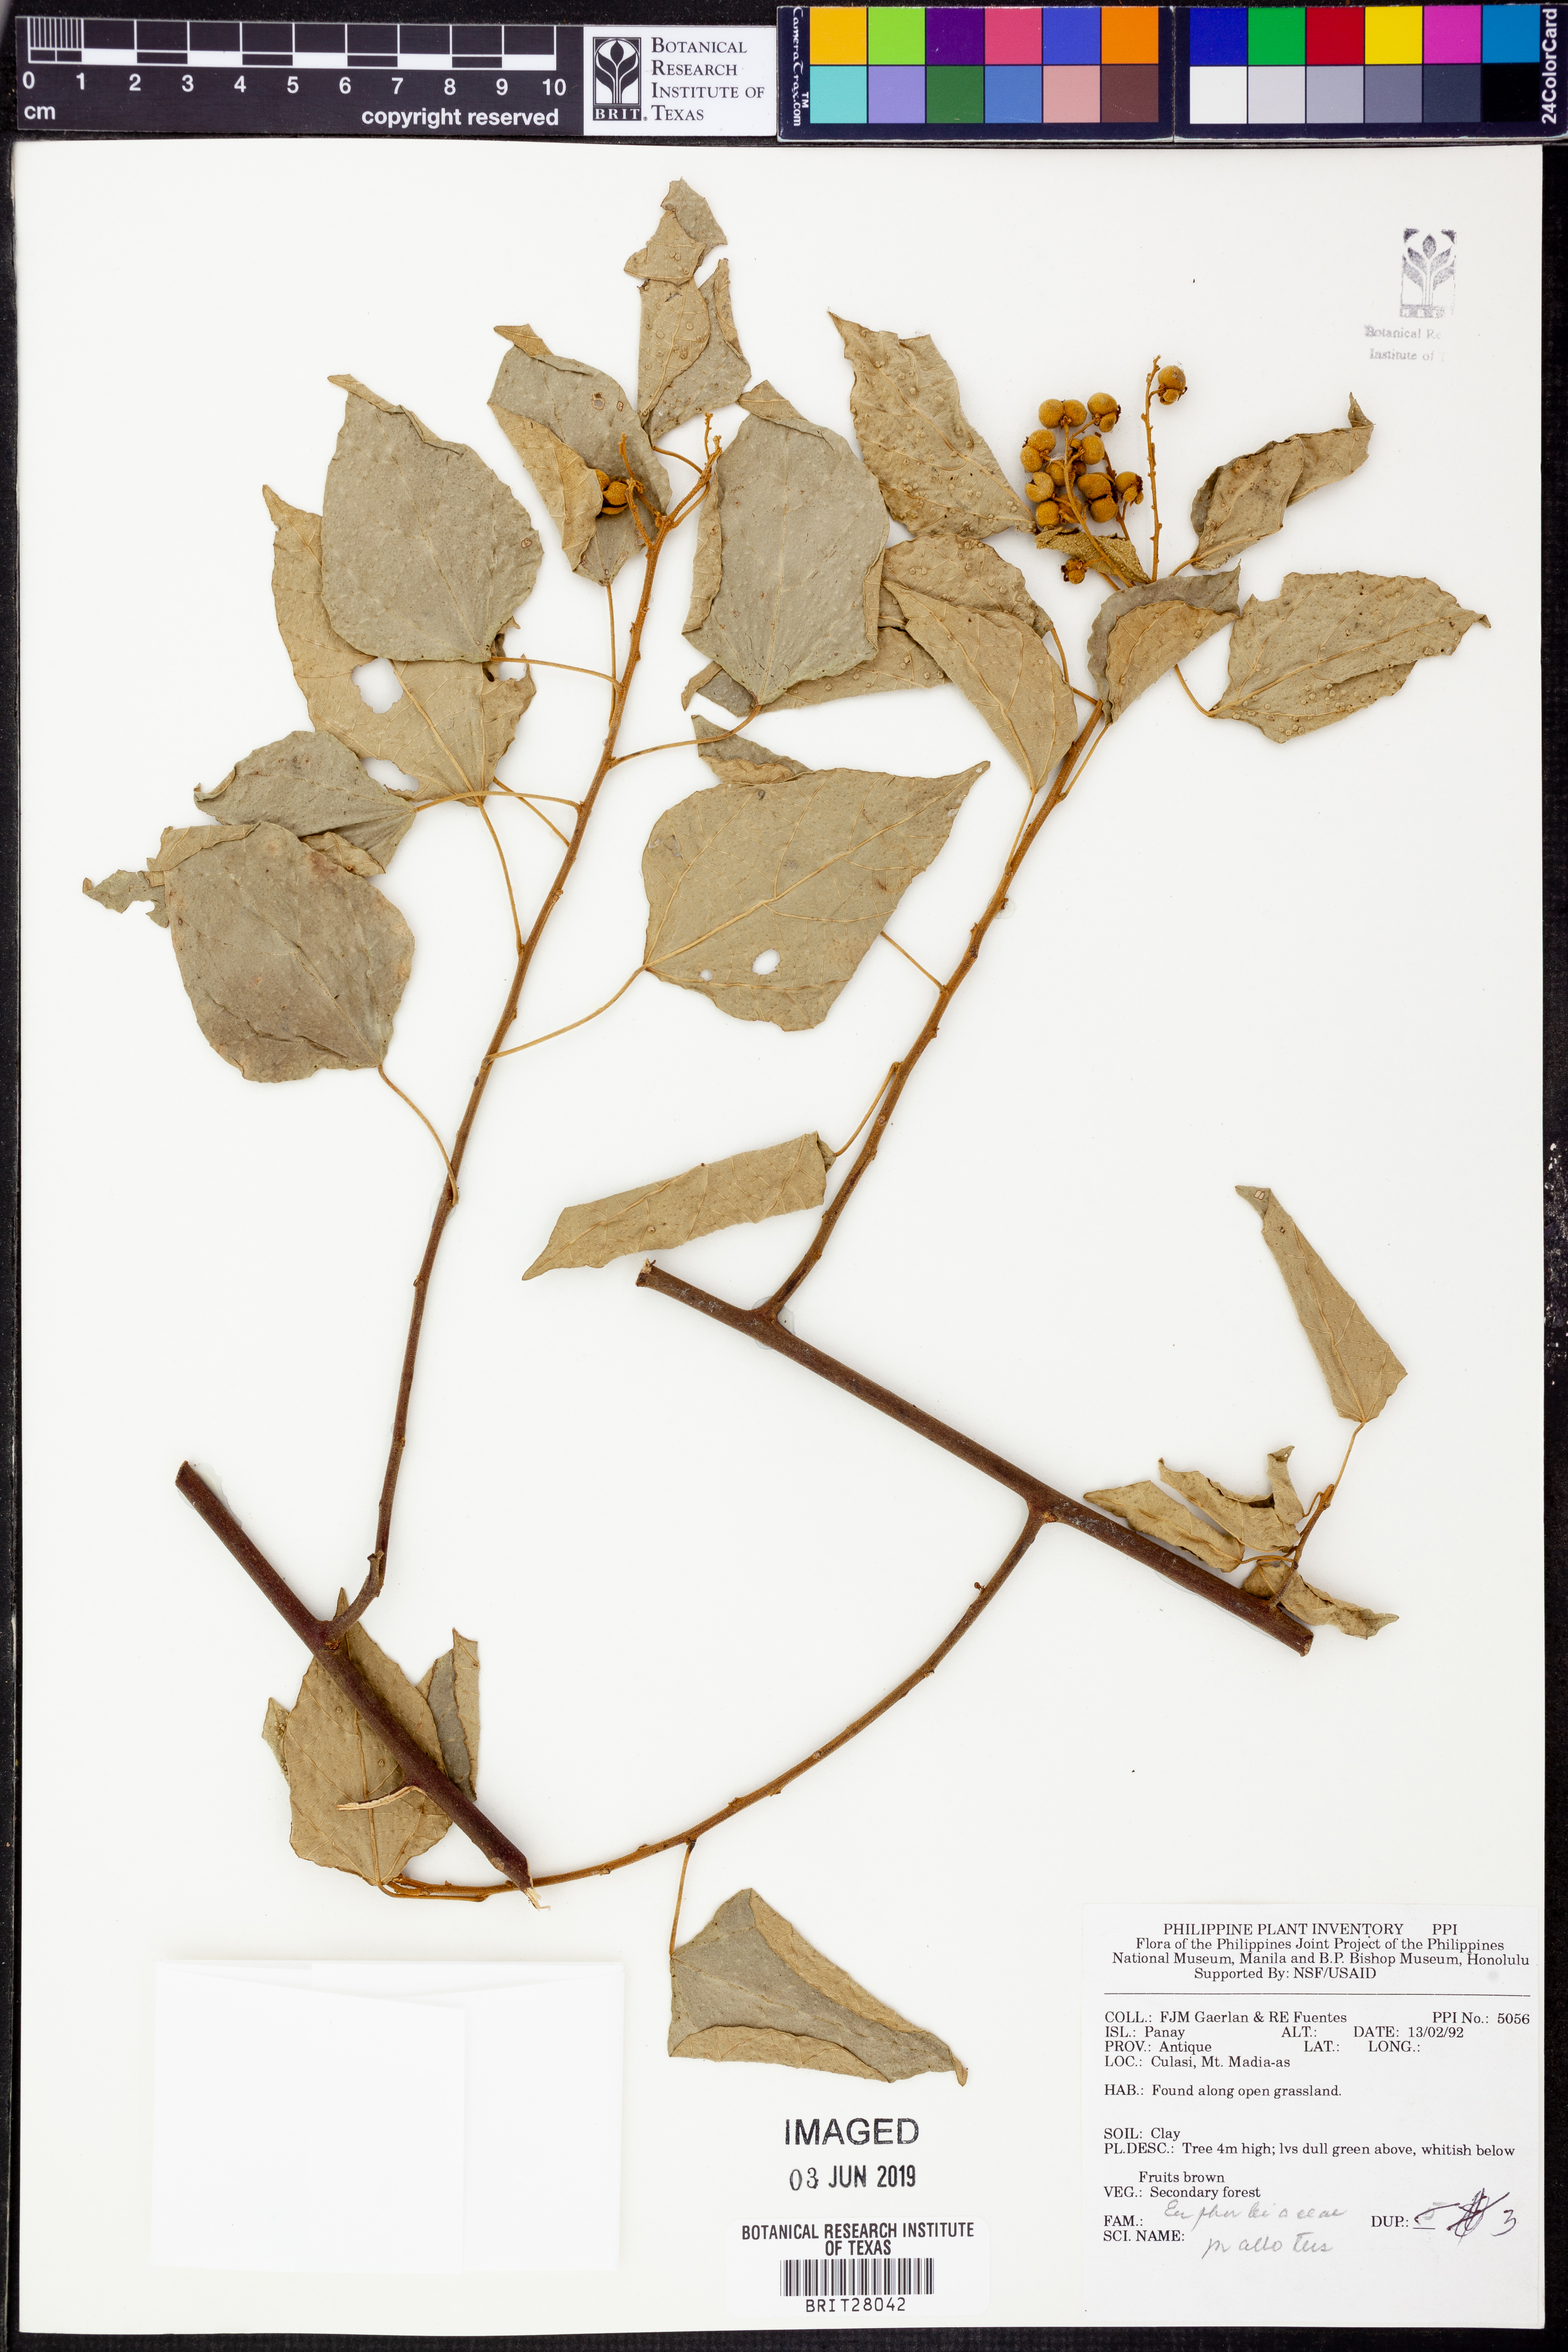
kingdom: Plantae
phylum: Tracheophyta
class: Magnoliopsida
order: Malpighiales
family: Euphorbiaceae
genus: Mallotus
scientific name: Mallotus
